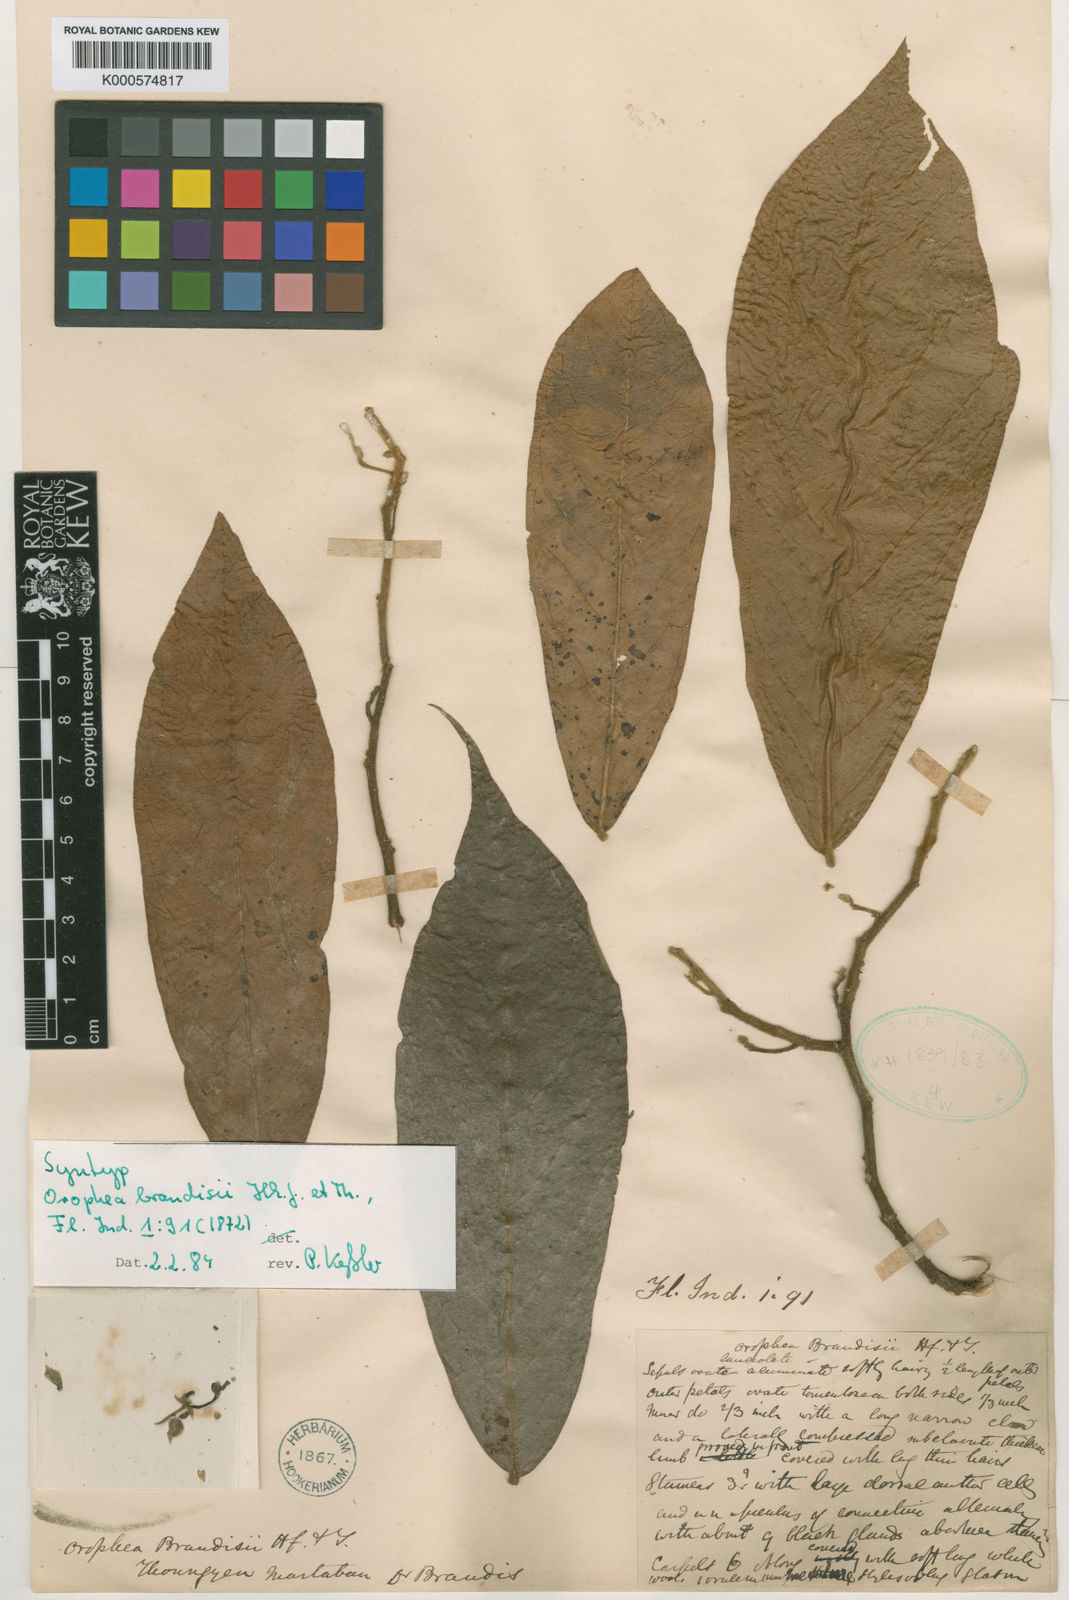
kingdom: Plantae
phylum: Tracheophyta
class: Magnoliopsida
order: Magnoliales
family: Annonaceae
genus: Orophea
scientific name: Orophea brandisii
